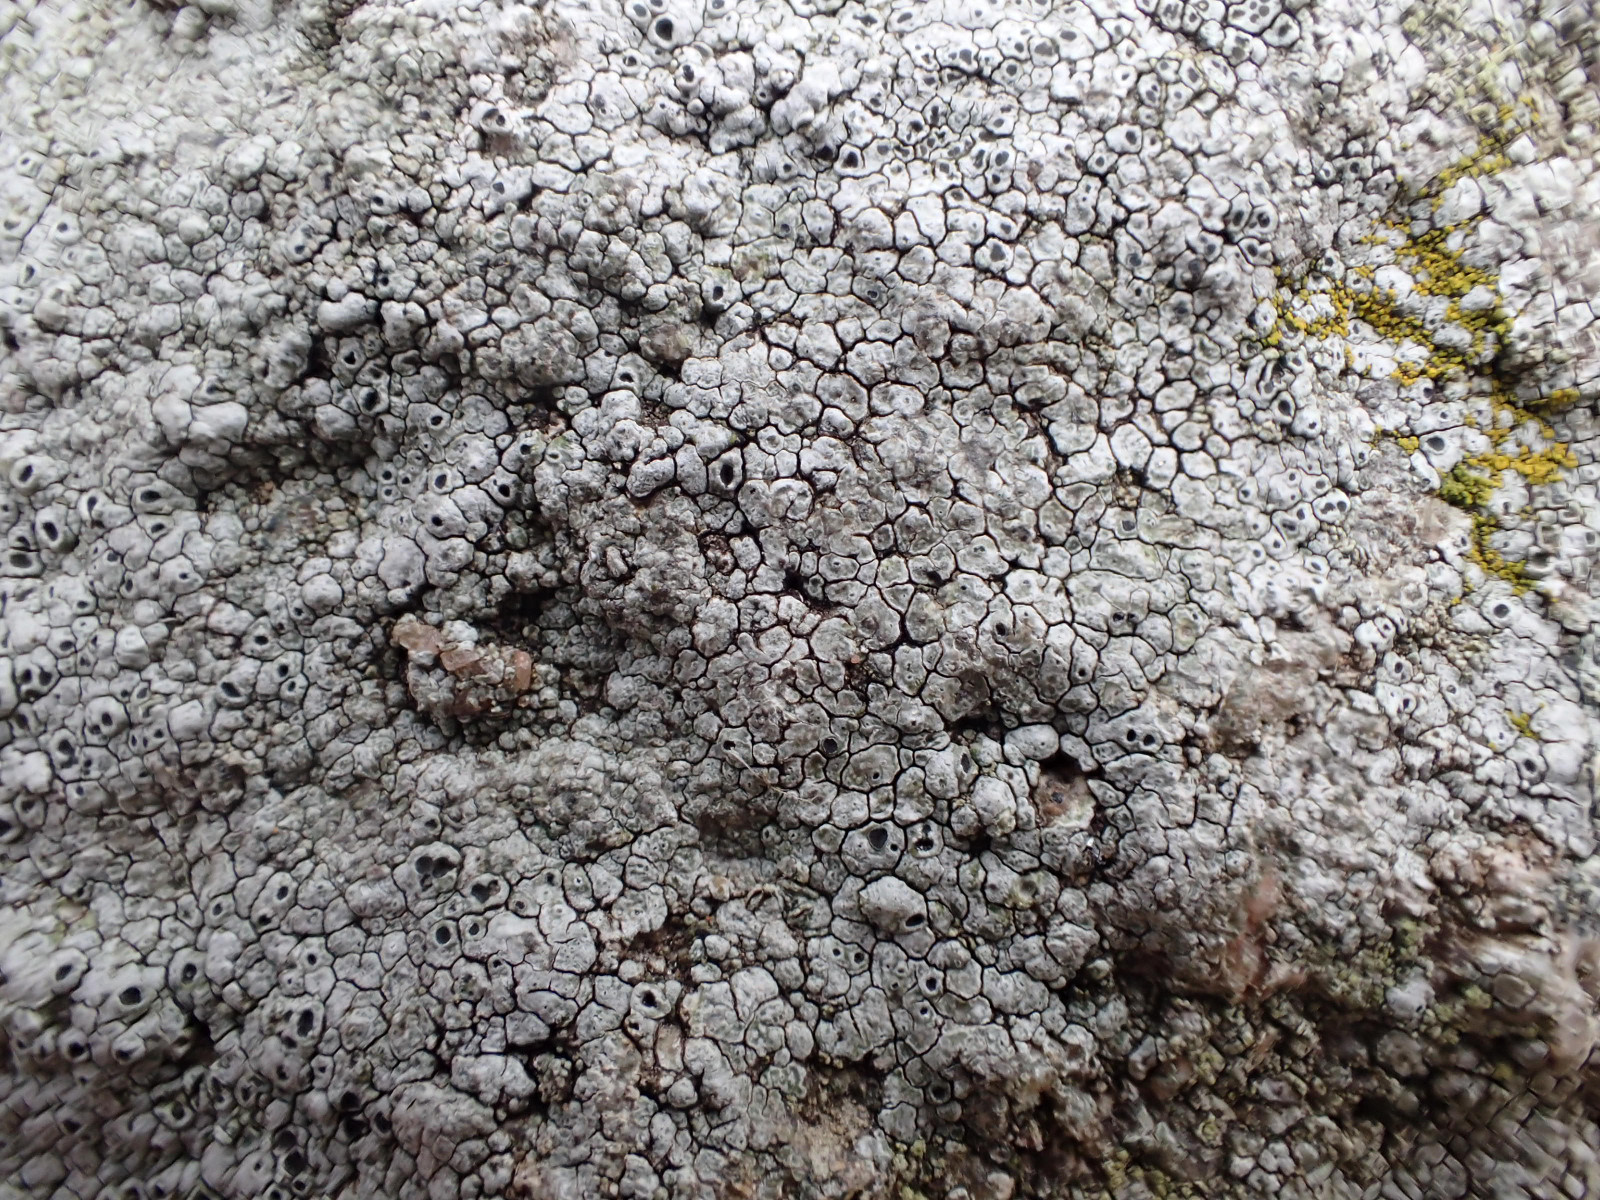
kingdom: Fungi
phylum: Ascomycota
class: Lecanoromycetes
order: Pertusariales
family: Megasporaceae
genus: Circinaria
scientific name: Circinaria caesiocinerea
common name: fuglestens-hulskivelav
